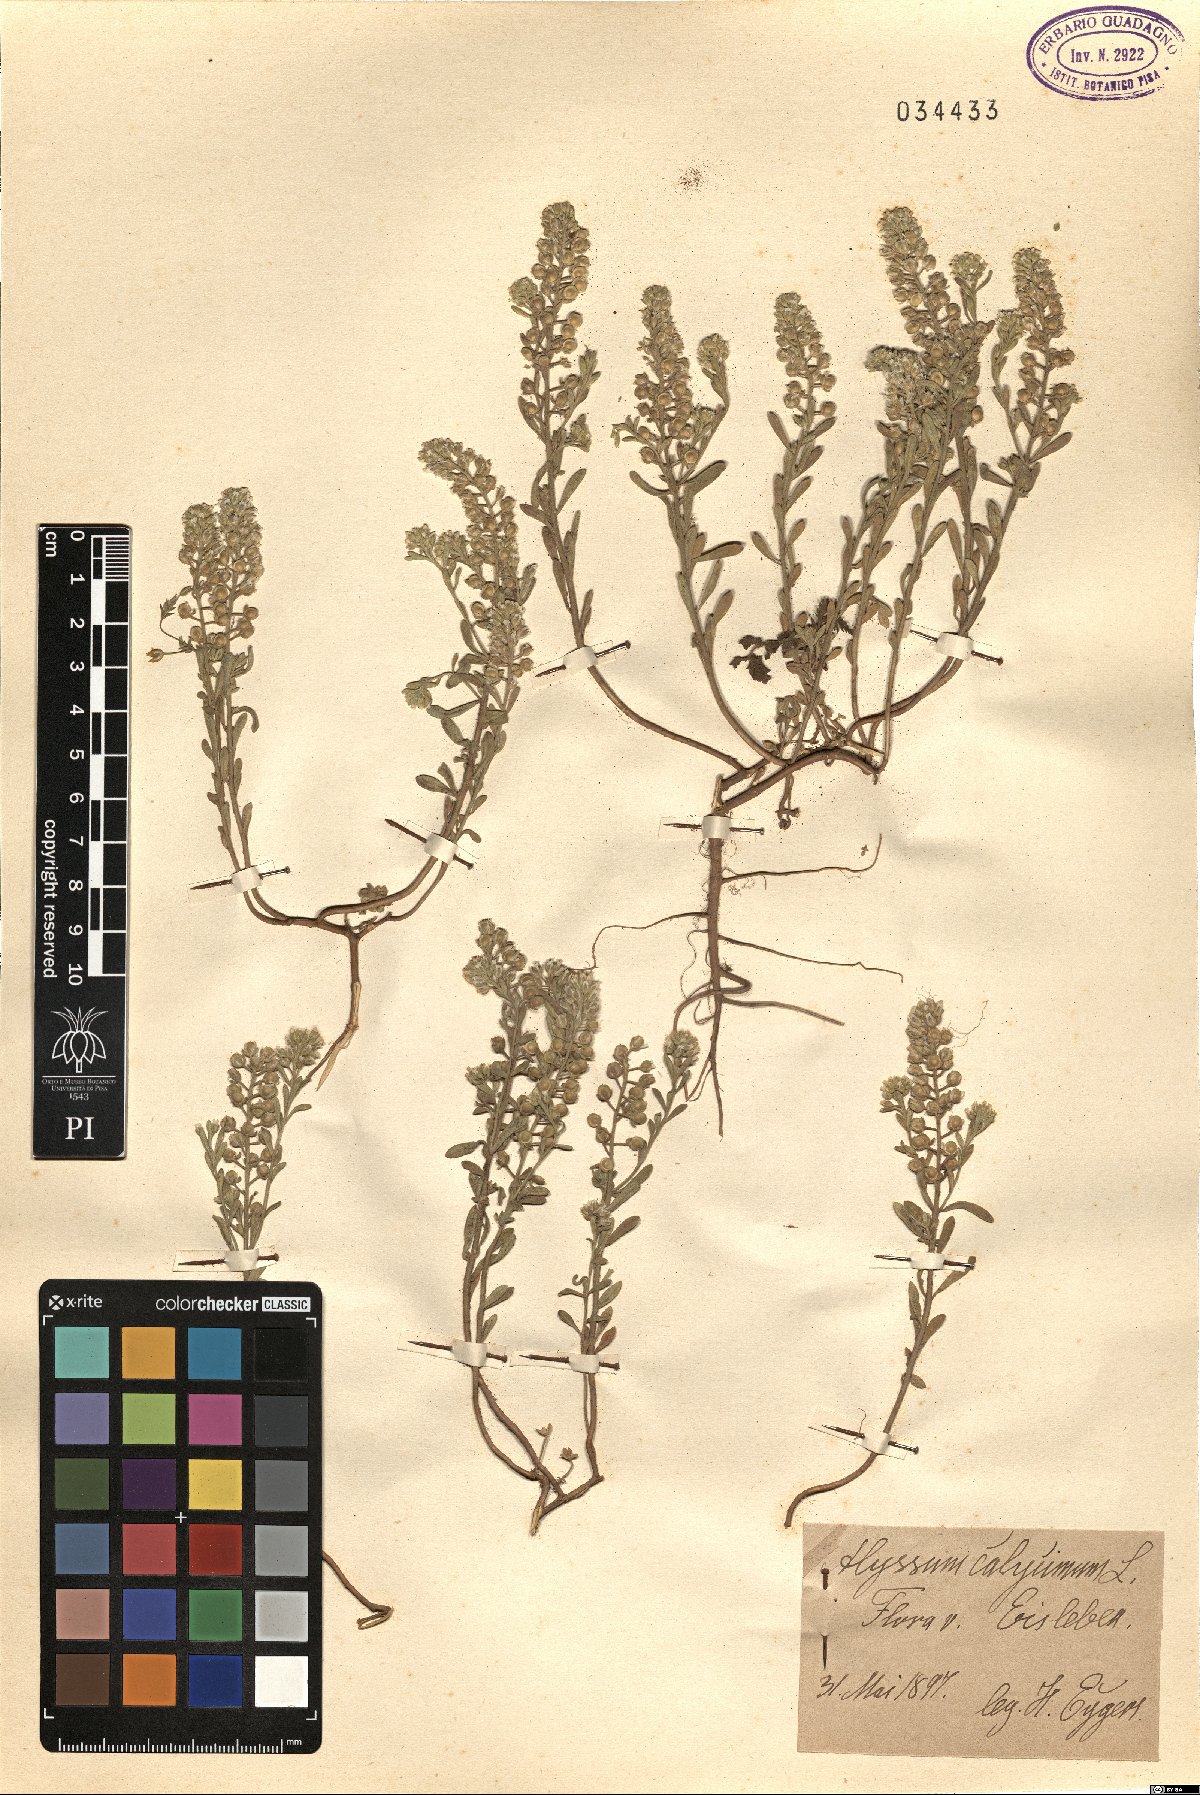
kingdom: Plantae
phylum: Tracheophyta
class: Magnoliopsida
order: Brassicales
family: Brassicaceae
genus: Alyssum
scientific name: Alyssum alyssoides
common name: Small alison
